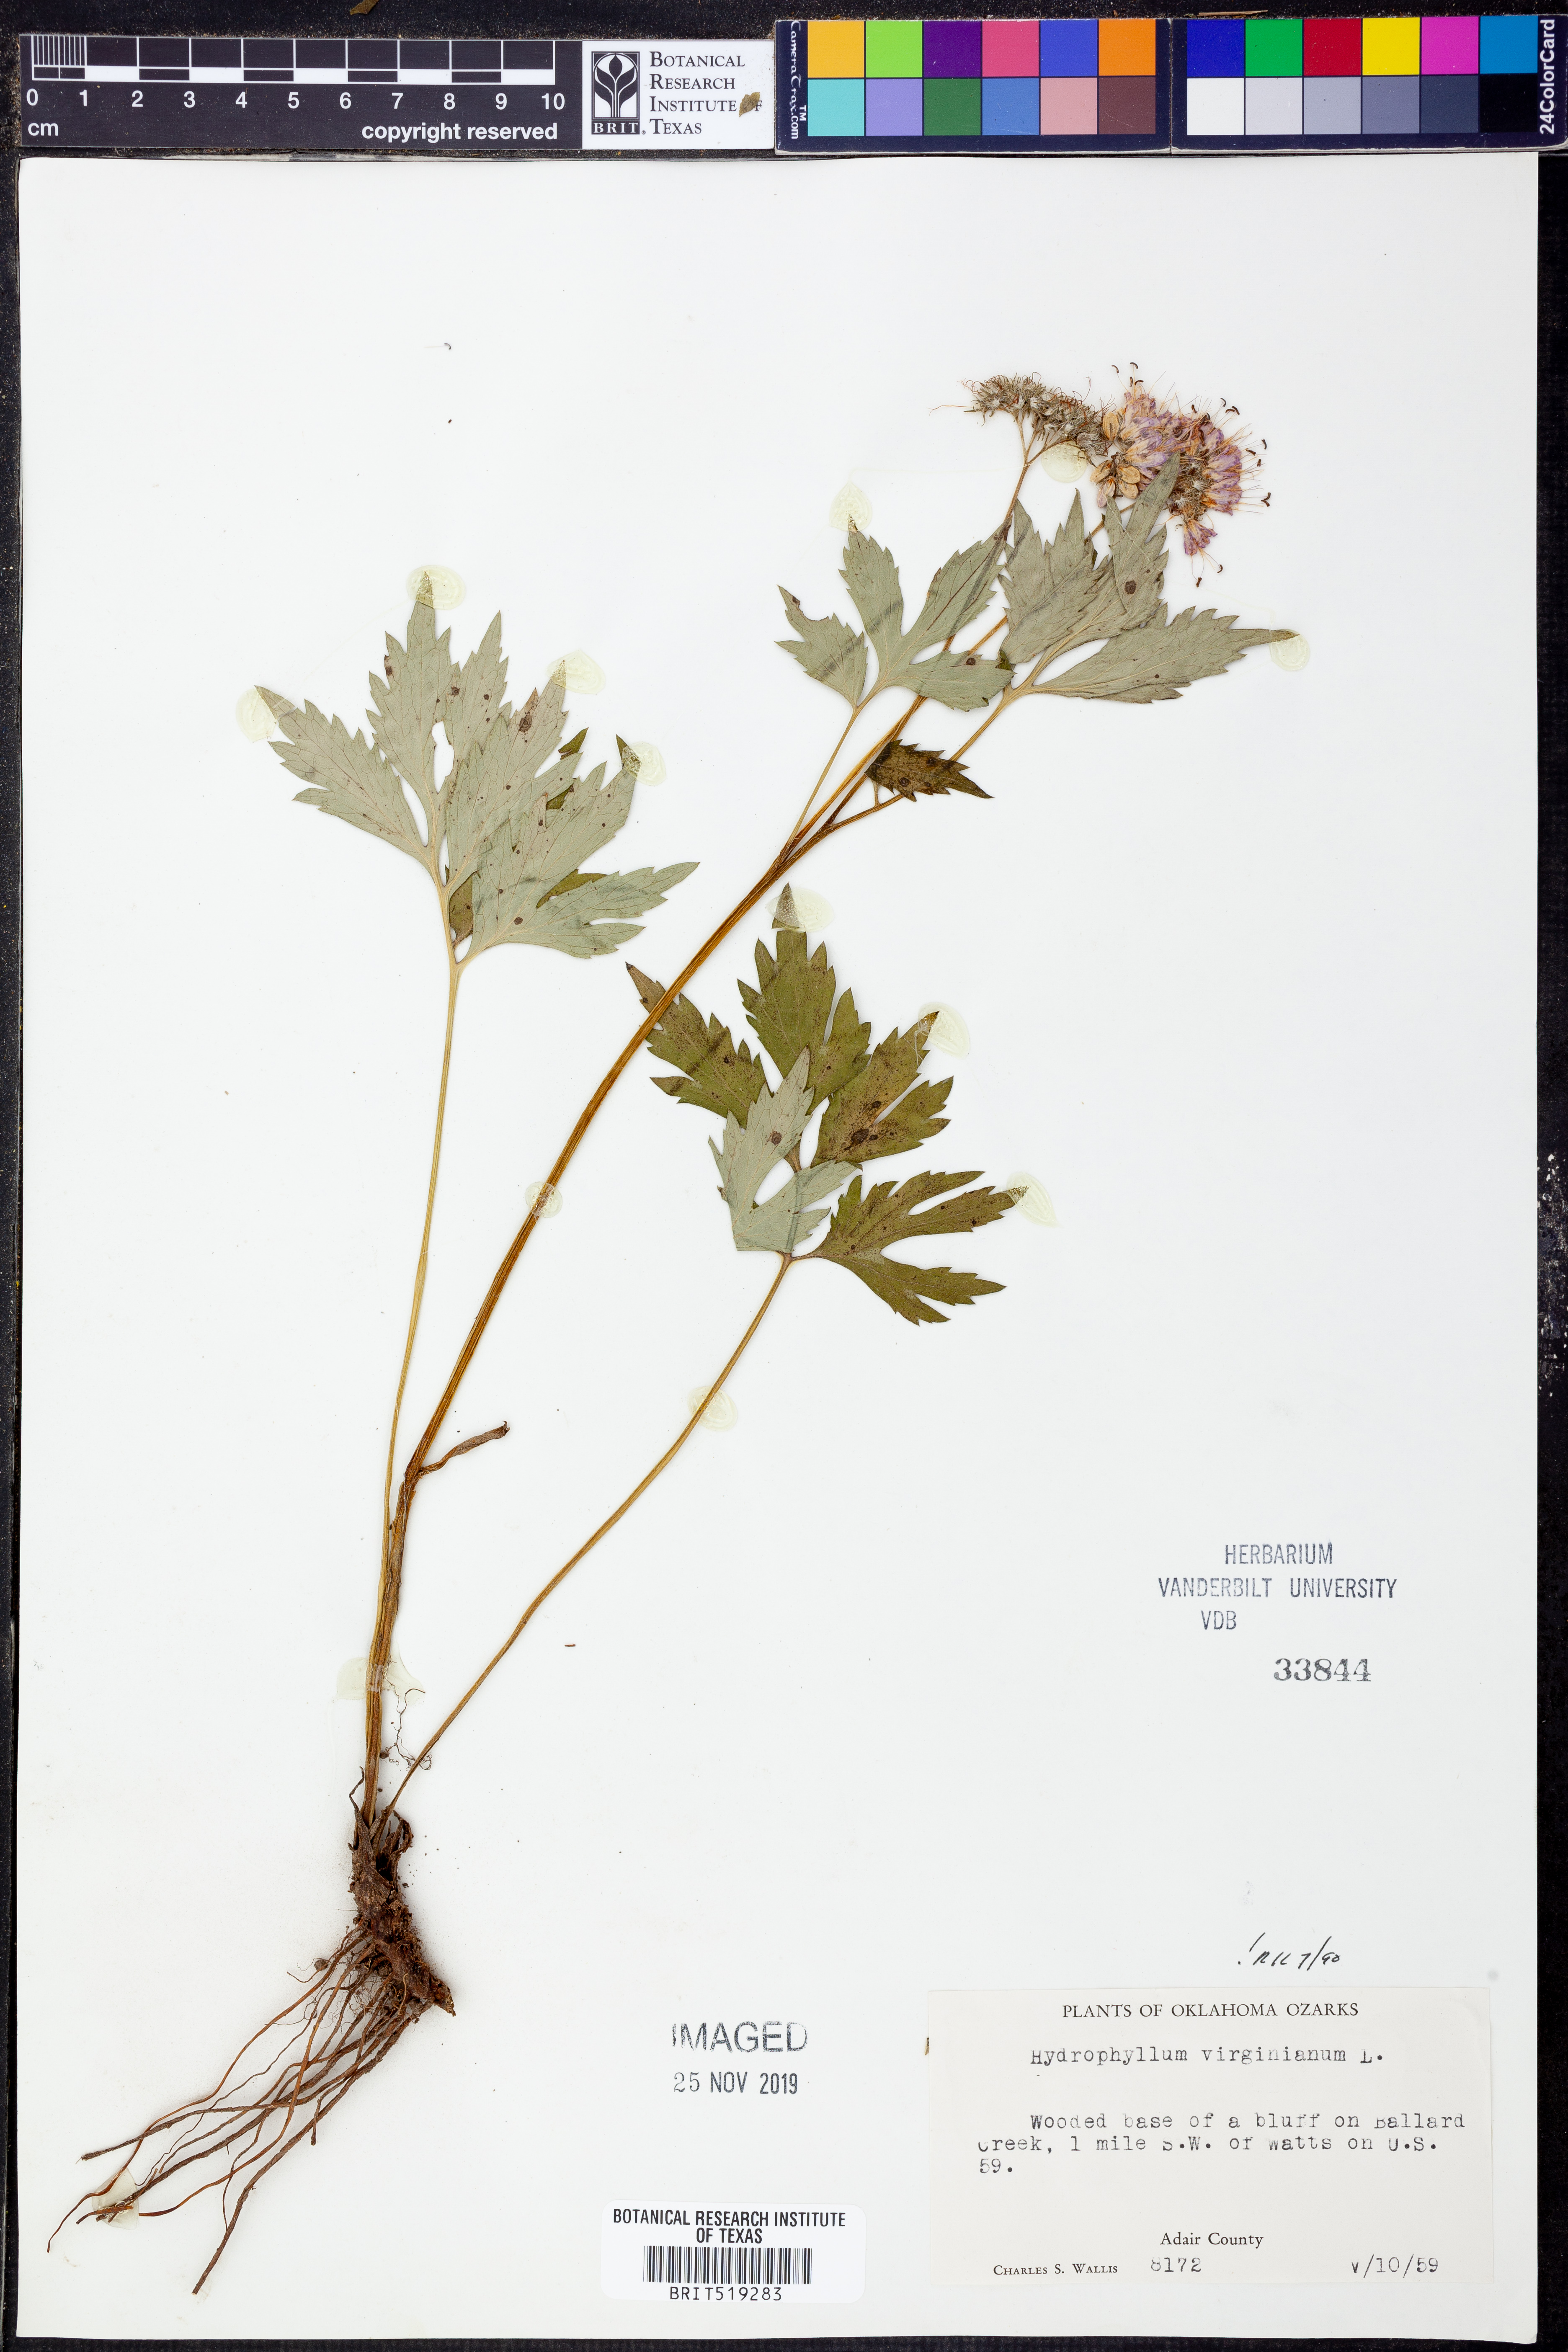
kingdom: Plantae
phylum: Tracheophyta
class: Magnoliopsida
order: Boraginales
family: Hydrophyllaceae
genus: Hydrophyllum
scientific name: Hydrophyllum virginianum
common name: Virginia waterleaf
